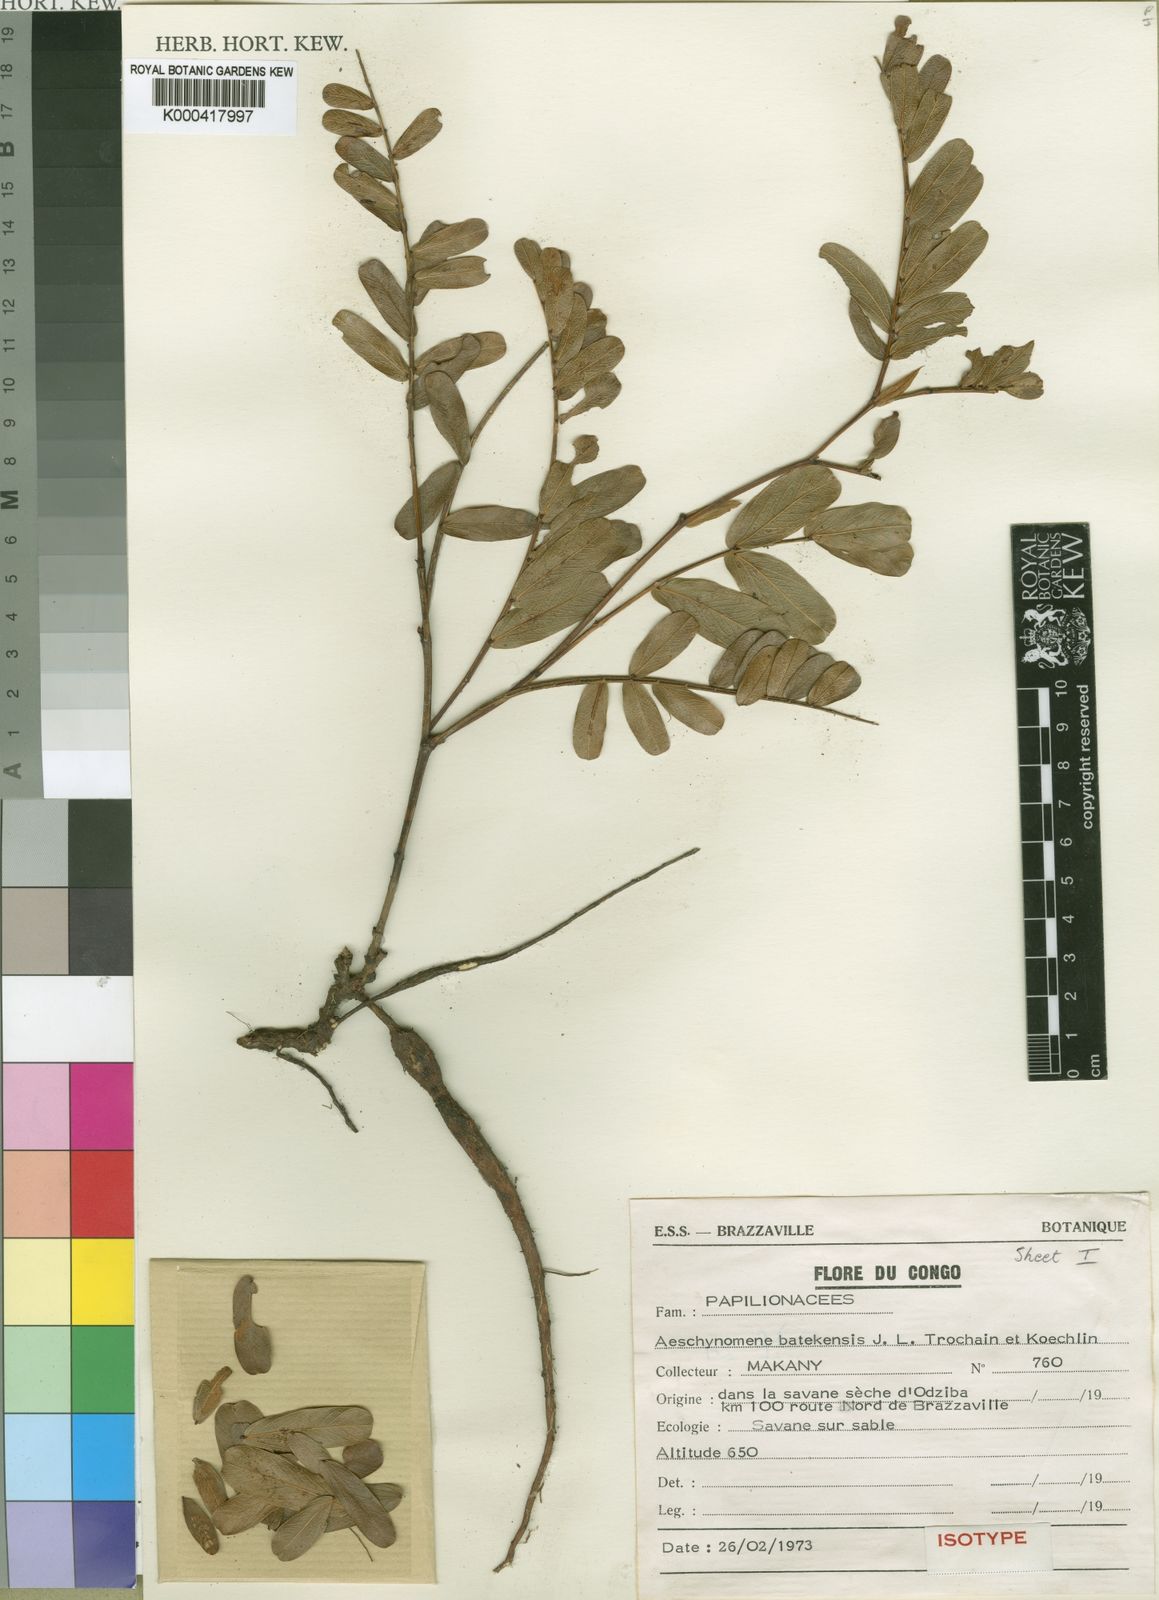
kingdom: Plantae
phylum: Tracheophyta
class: Magnoliopsida
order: Fabales
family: Fabaceae
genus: Aeschynomene
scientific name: Aeschynomene batekensis
